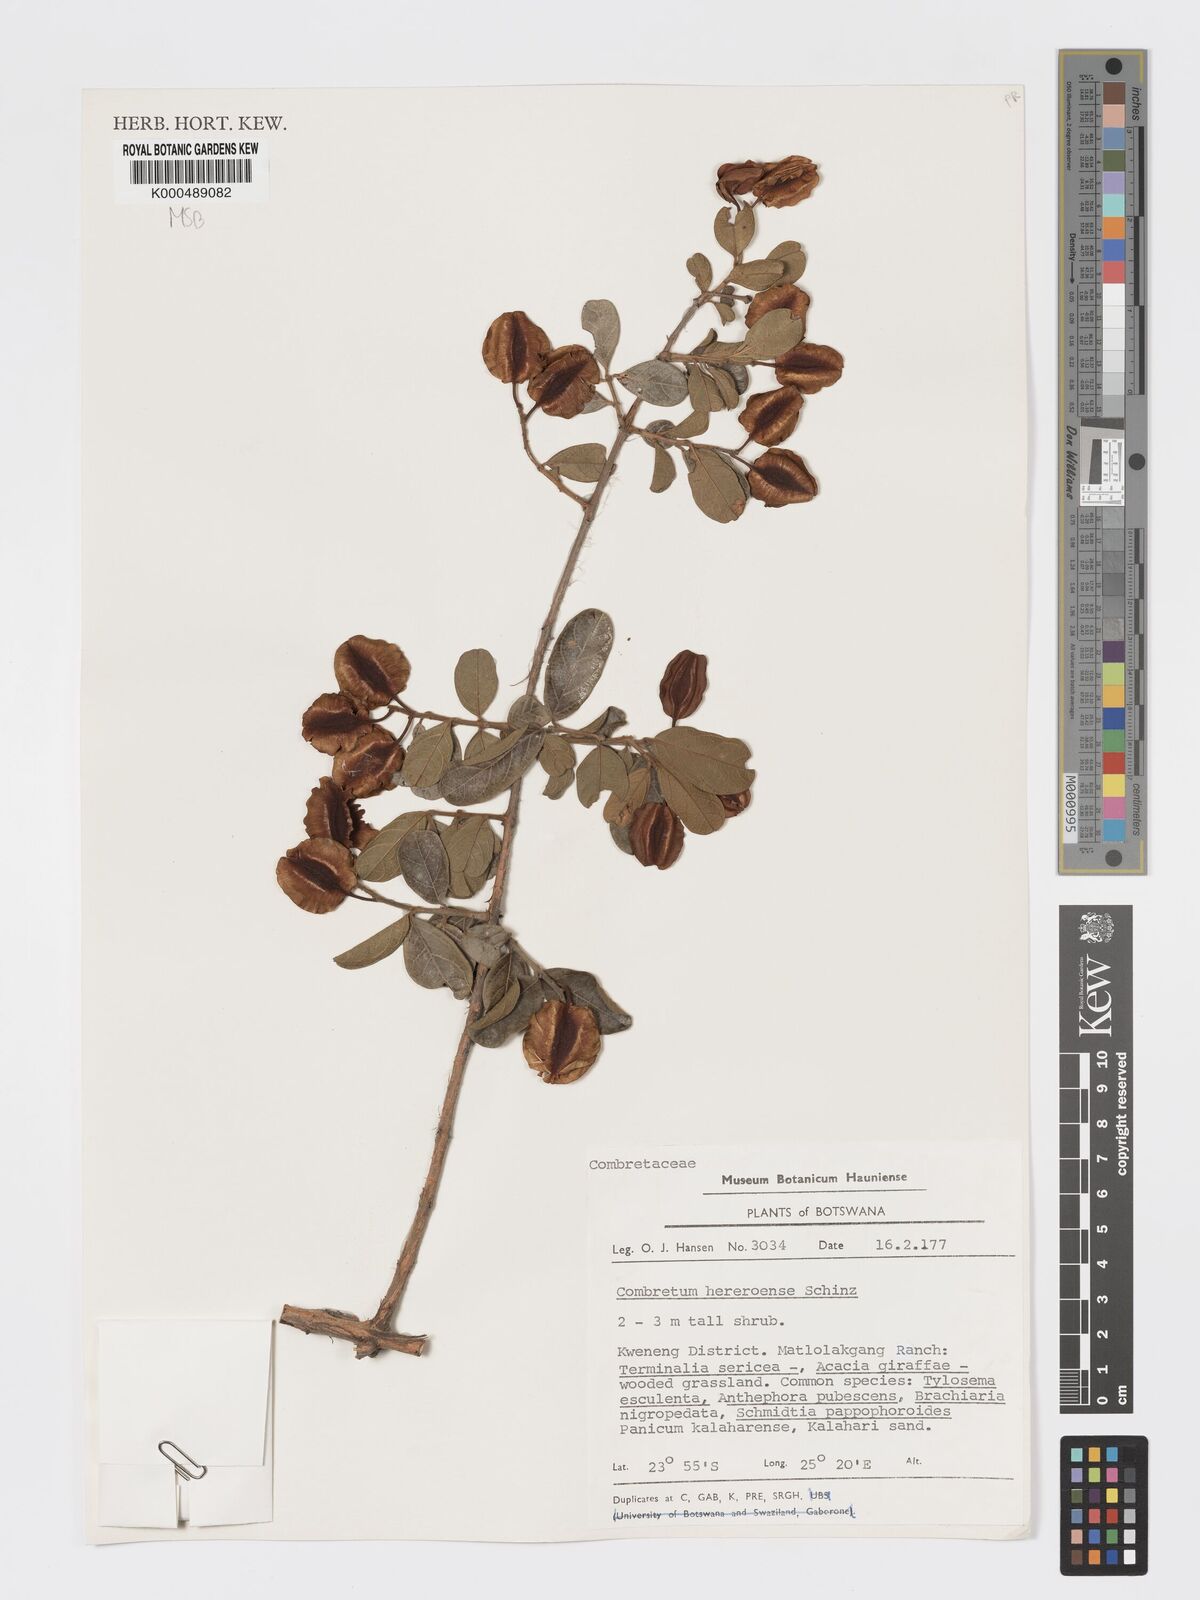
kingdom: Plantae
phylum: Tracheophyta
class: Magnoliopsida
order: Myrtales
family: Combretaceae
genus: Combretum
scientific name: Combretum hereroense
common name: Russet bushwillow
